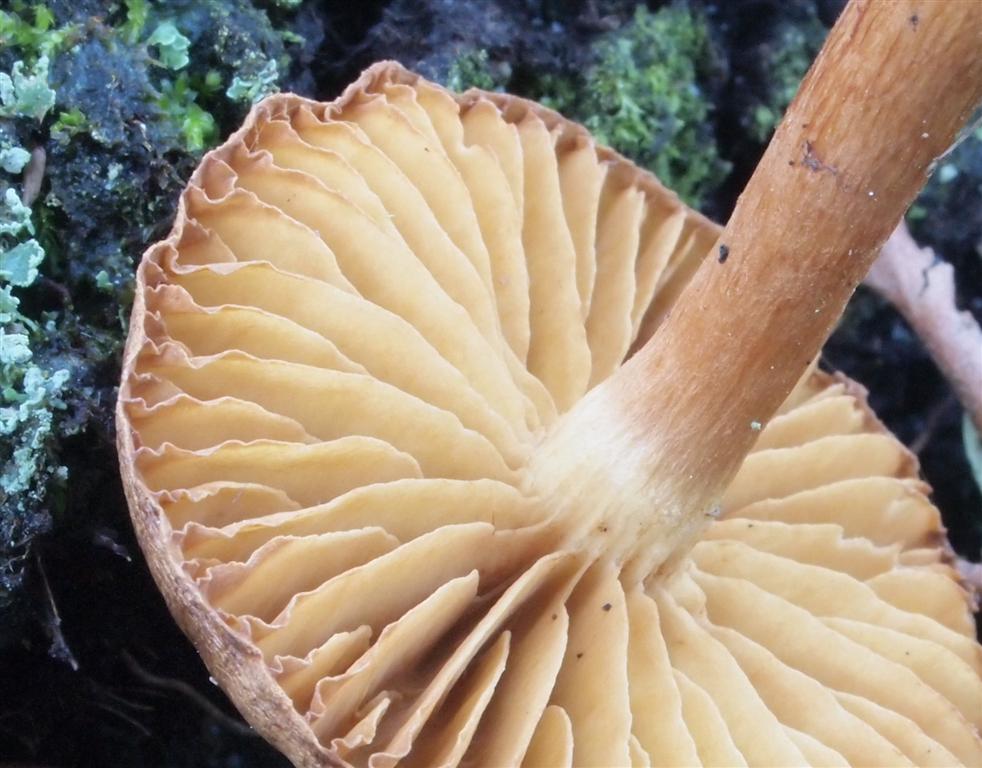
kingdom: Fungi
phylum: Basidiomycota
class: Agaricomycetes
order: Agaricales
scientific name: Agaricales
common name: champignonordenen
